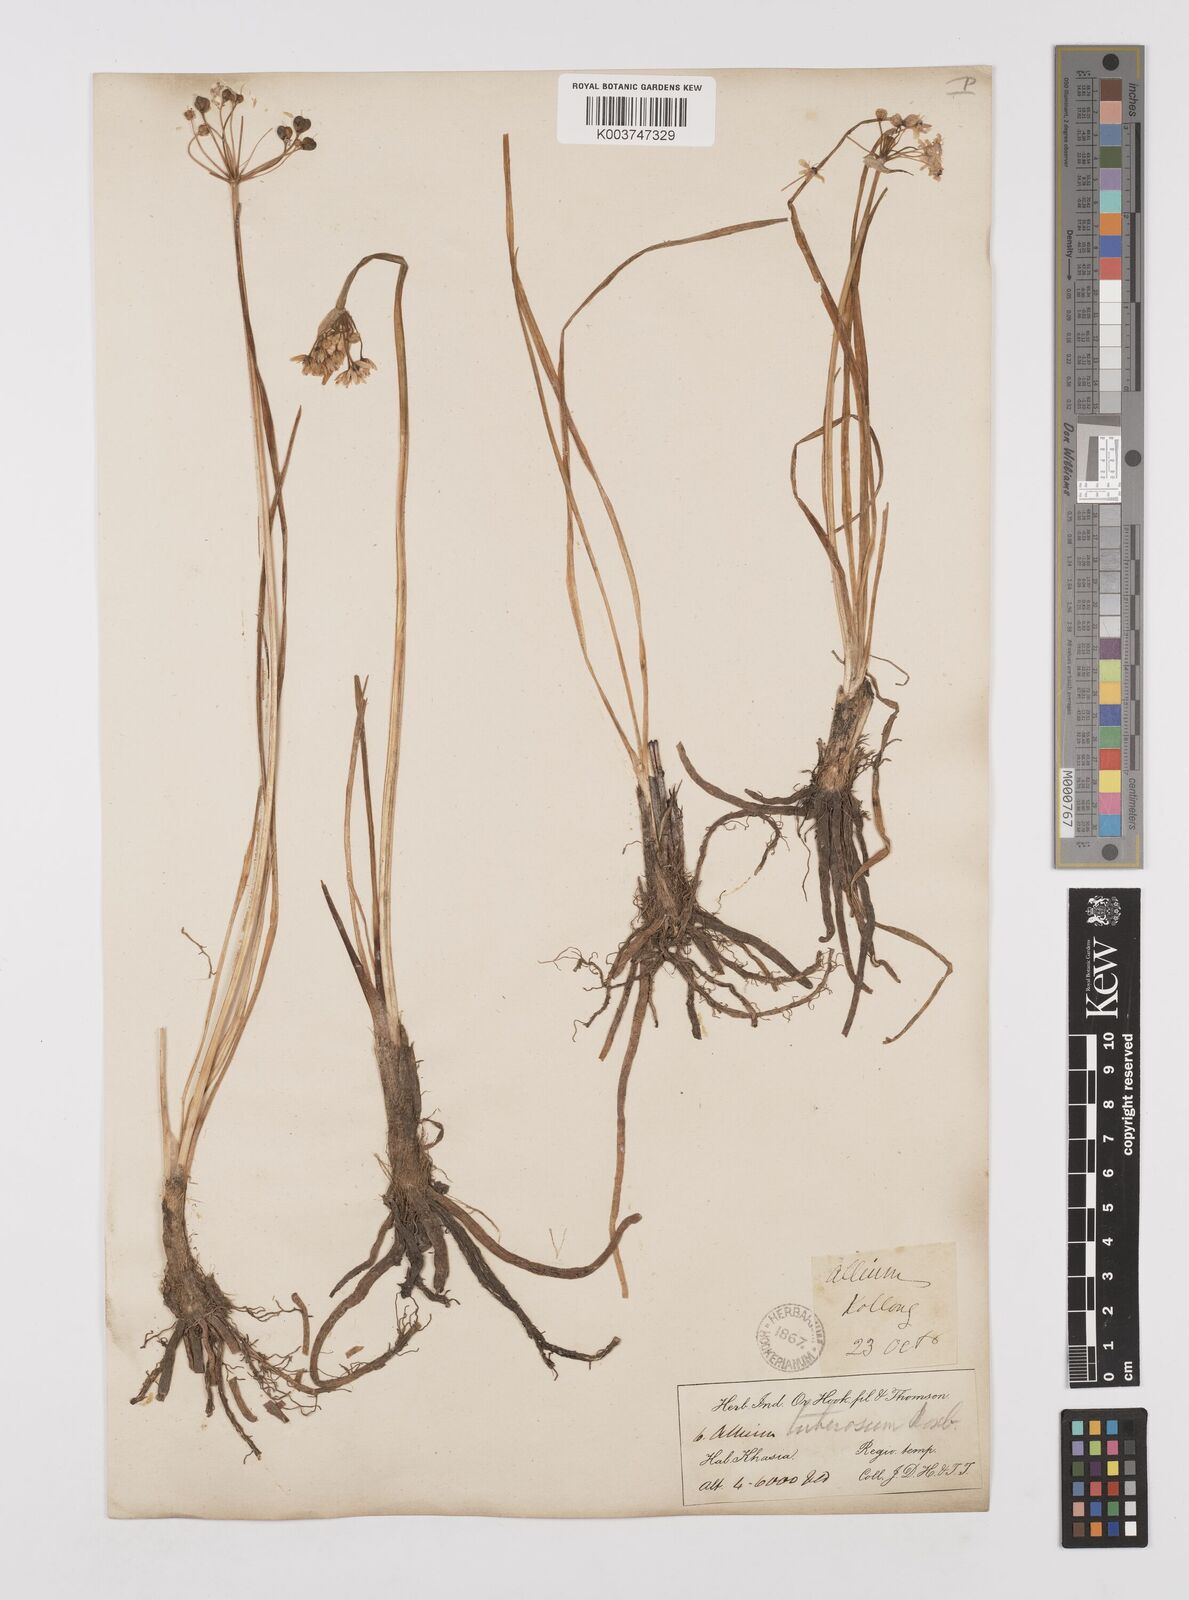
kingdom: Plantae
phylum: Tracheophyta
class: Liliopsida
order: Asparagales
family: Amaryllidaceae
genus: Allium
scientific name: Allium tuberosum
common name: Chinese chives
